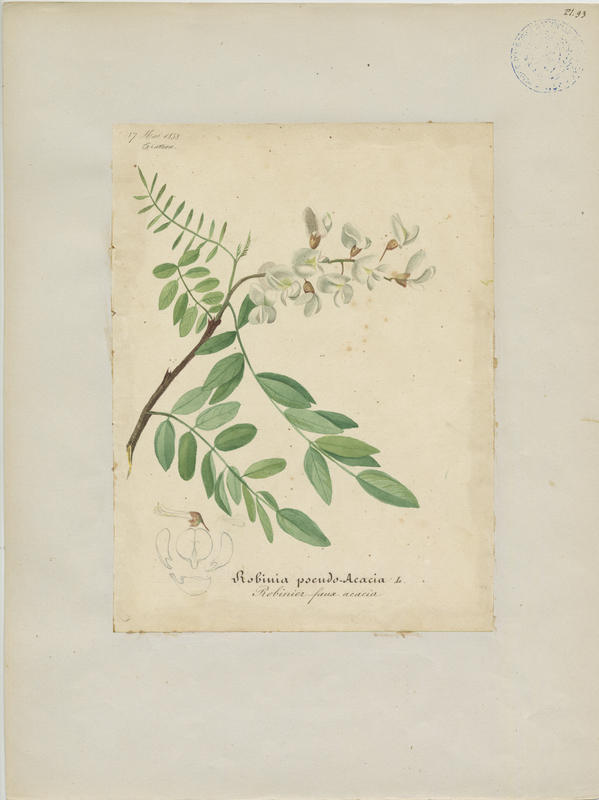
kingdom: Plantae
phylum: Tracheophyta
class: Magnoliopsida
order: Fabales
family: Fabaceae
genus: Robinia
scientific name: Robinia pseudoacacia
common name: Black locust
